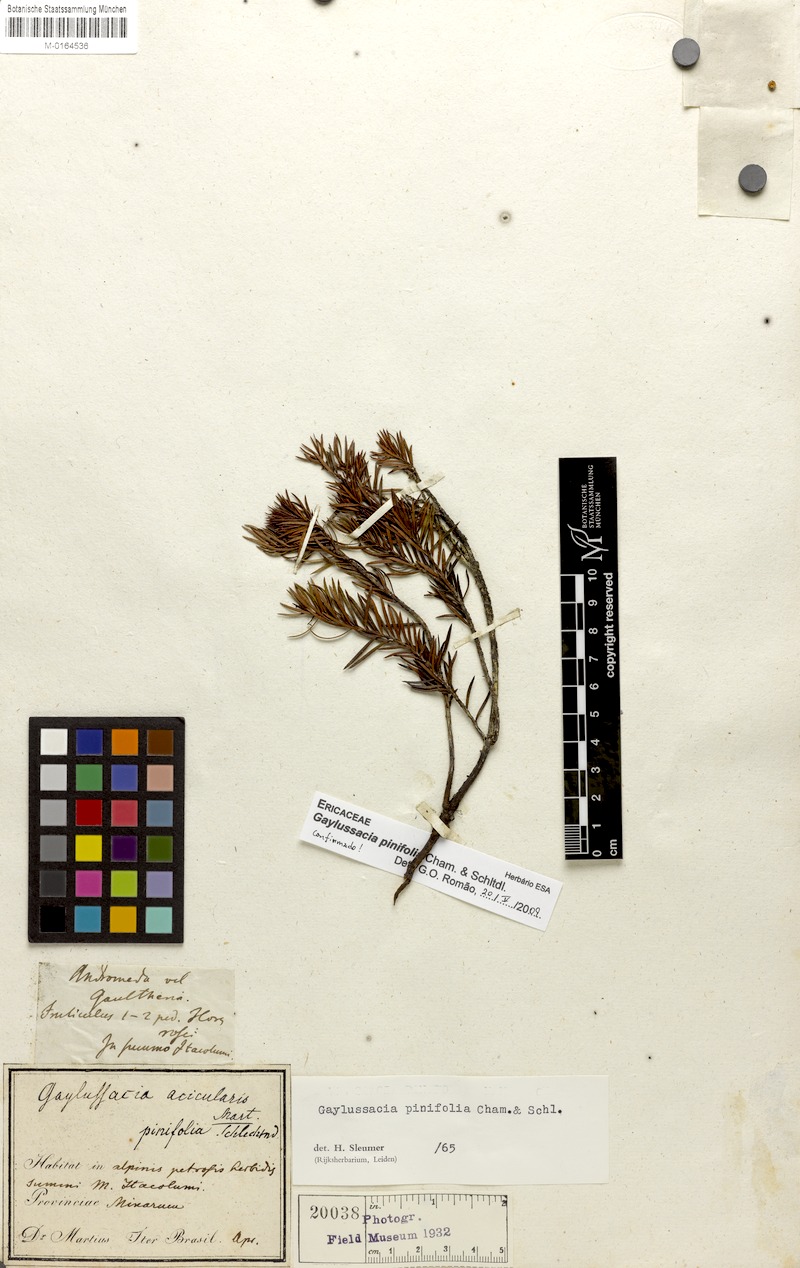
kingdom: Plantae
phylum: Tracheophyta
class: Magnoliopsida
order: Ericales
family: Ericaceae
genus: Gaylussacia
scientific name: Gaylussacia pinifolia
